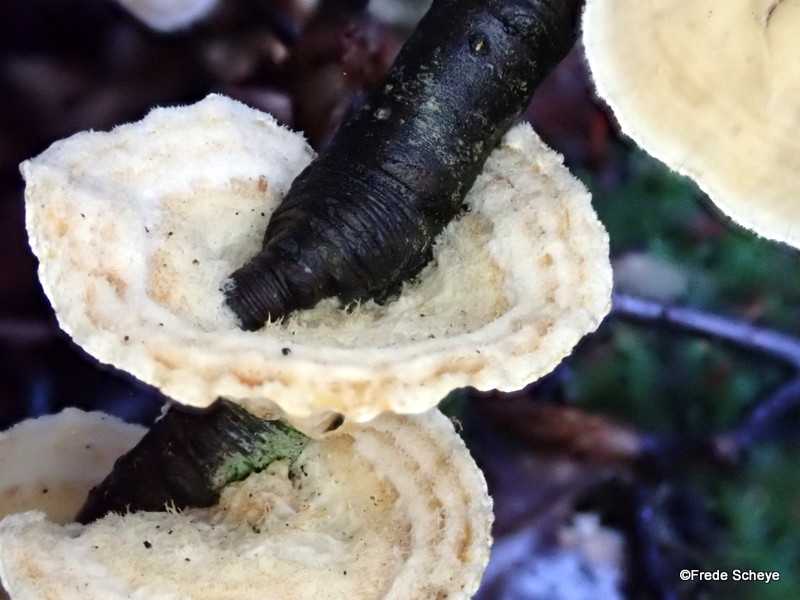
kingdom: Fungi
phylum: Basidiomycota
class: Agaricomycetes
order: Russulales
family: Stereaceae
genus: Stereum
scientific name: Stereum hirsutum
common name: håret lædersvamp
